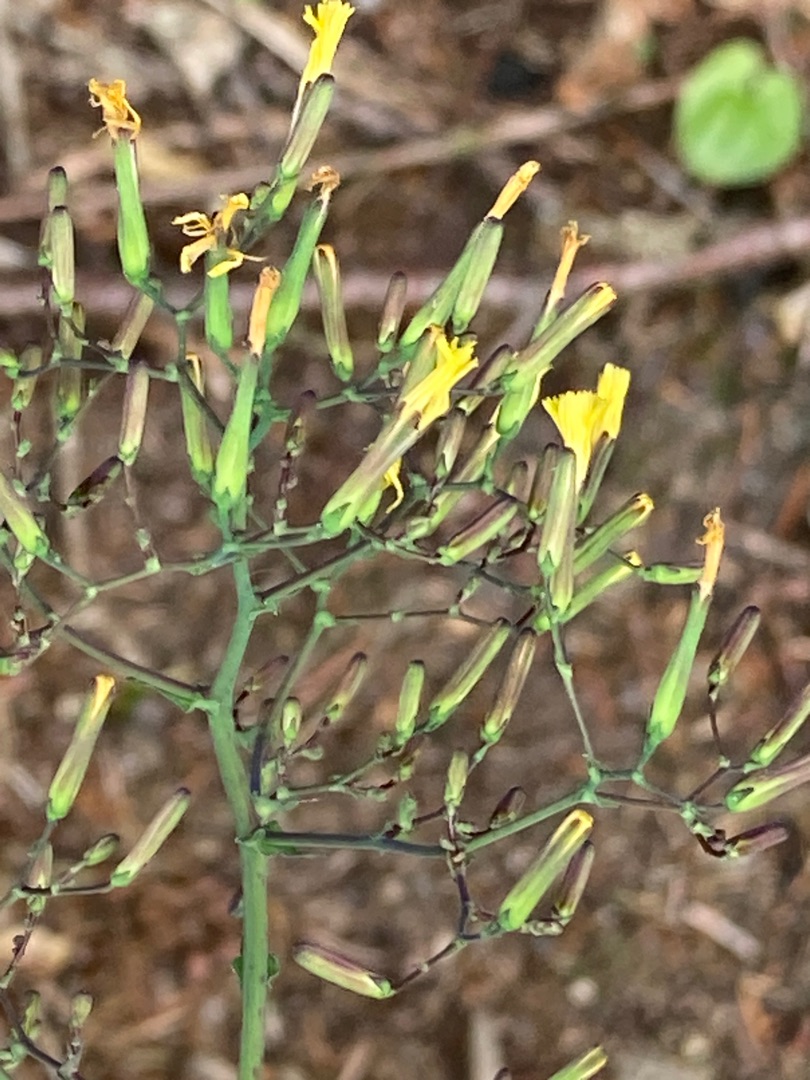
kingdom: Plantae
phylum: Tracheophyta
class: Magnoliopsida
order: Asterales
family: Asteraceae
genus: Mycelis
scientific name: Mycelis muralis
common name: Skov-salat
